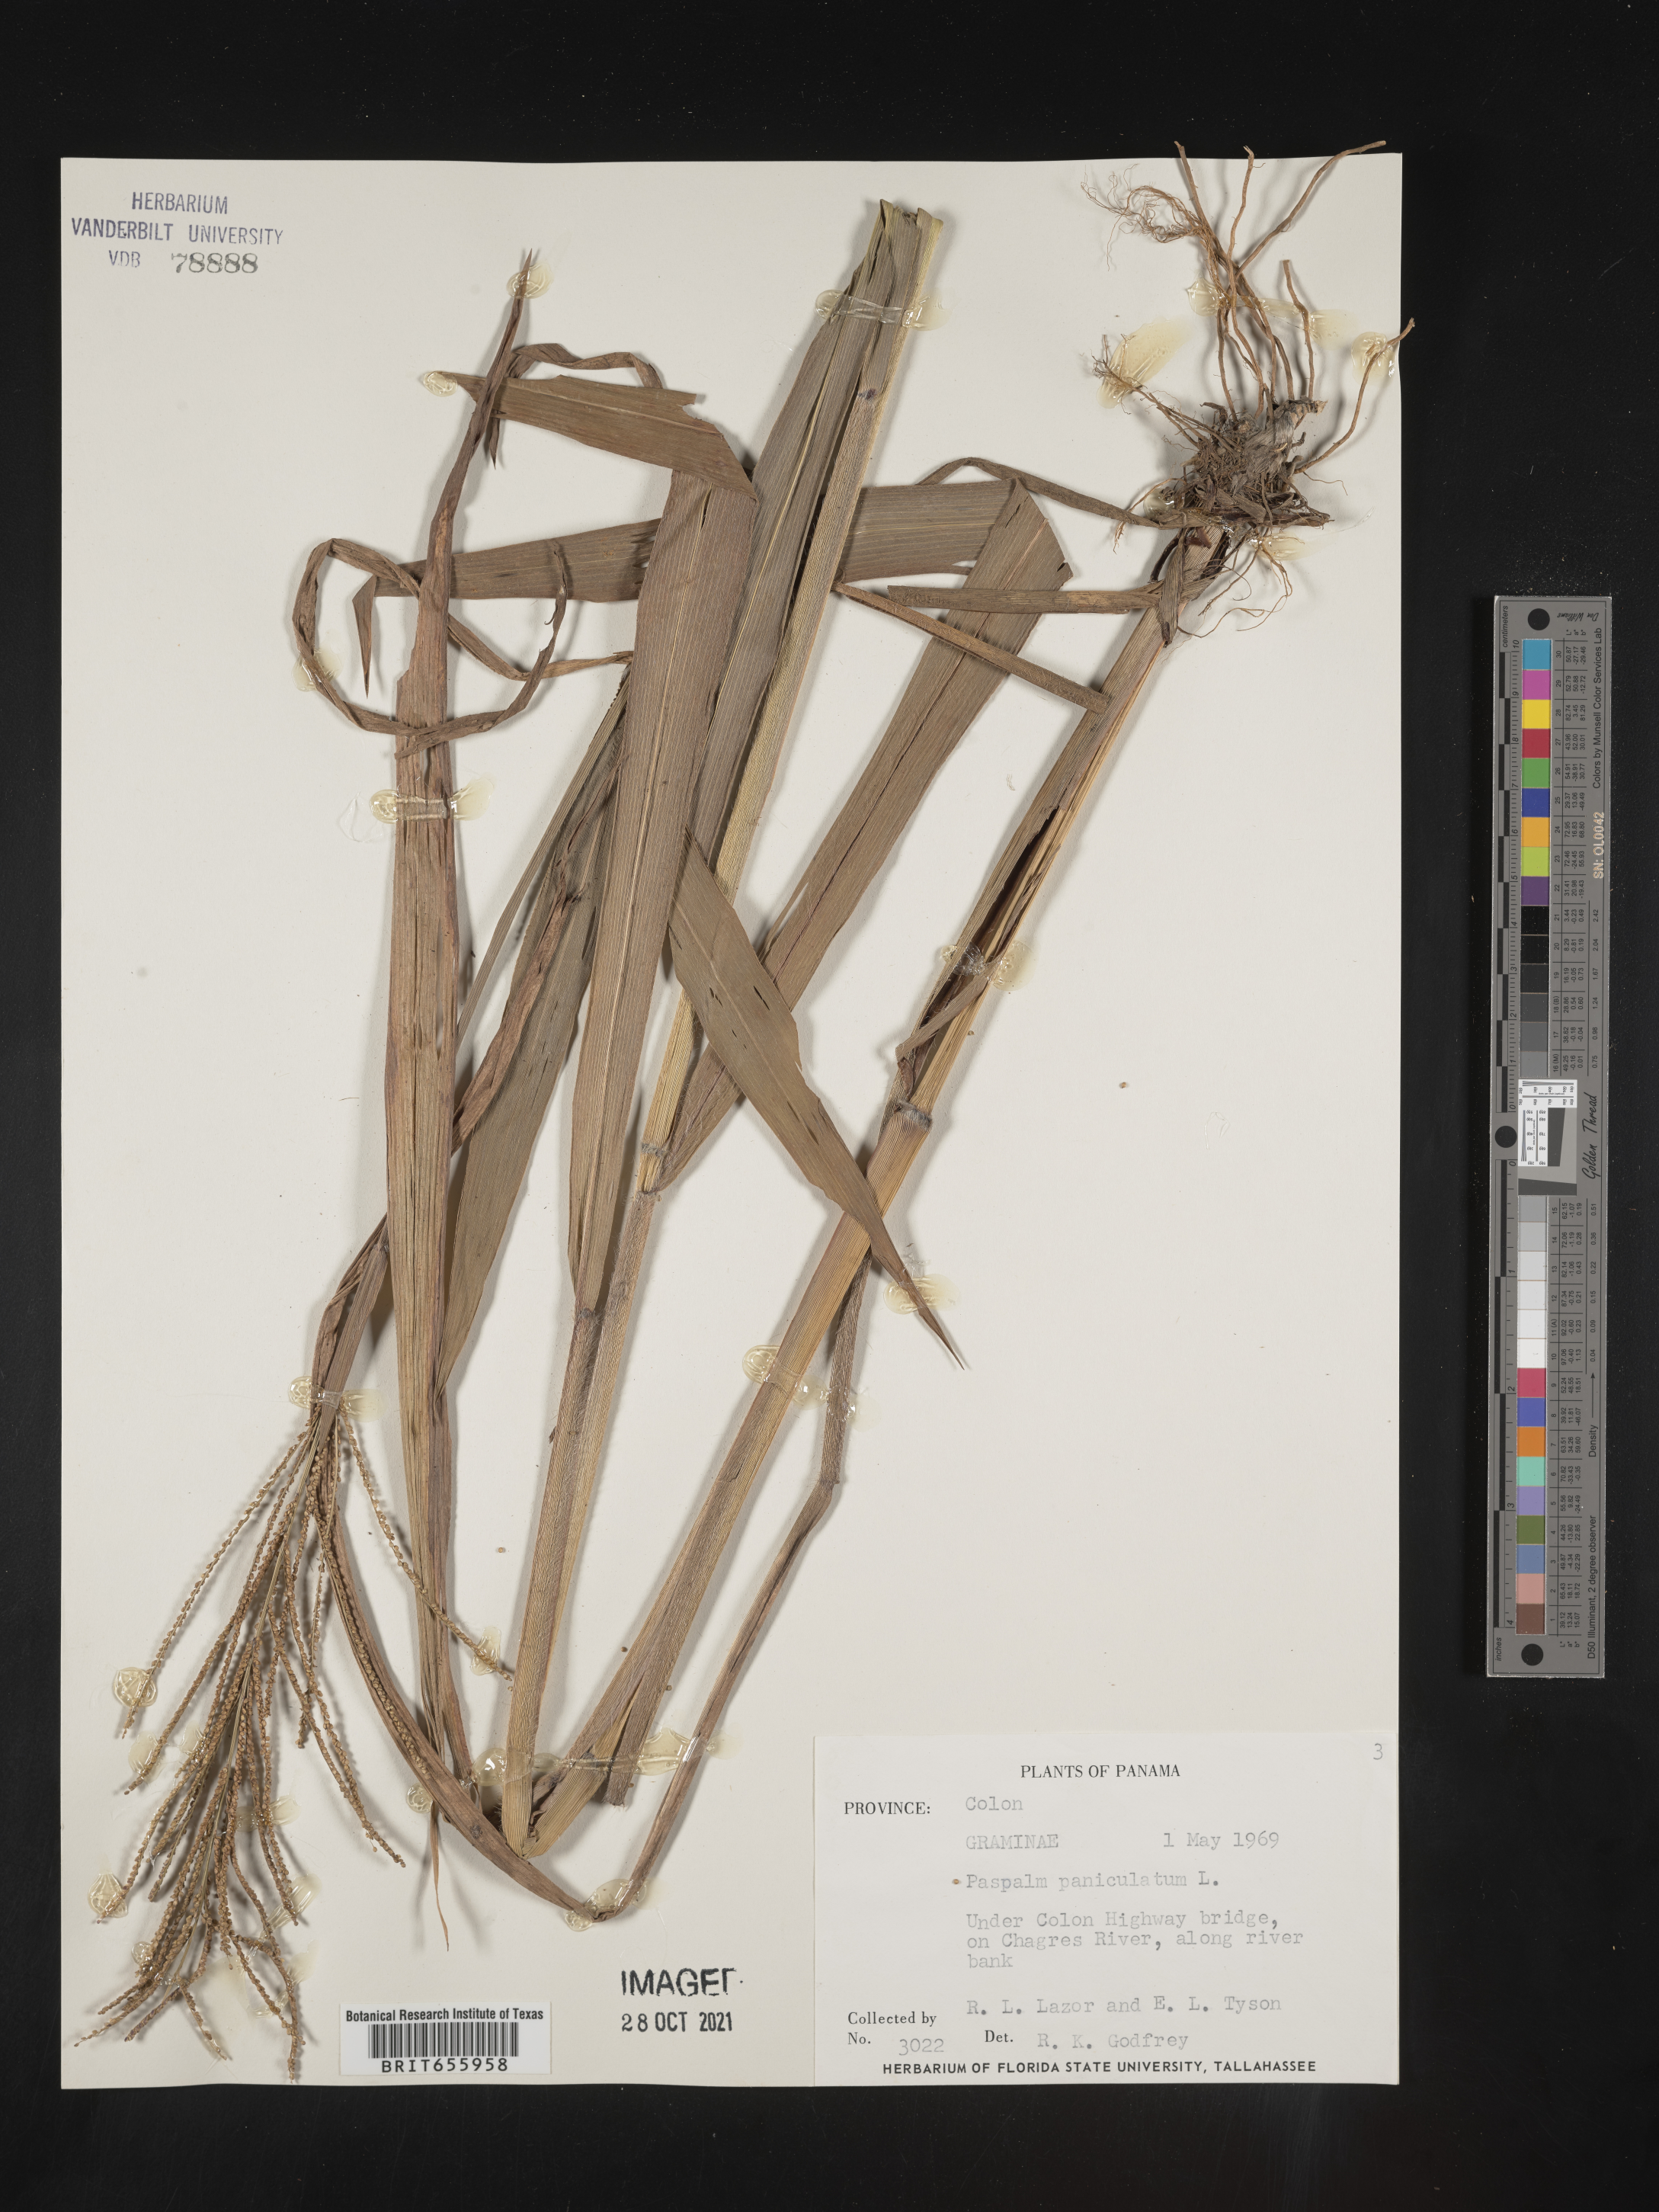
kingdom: Plantae
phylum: Tracheophyta
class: Liliopsida
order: Poales
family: Poaceae
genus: Paspalum
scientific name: Paspalum
